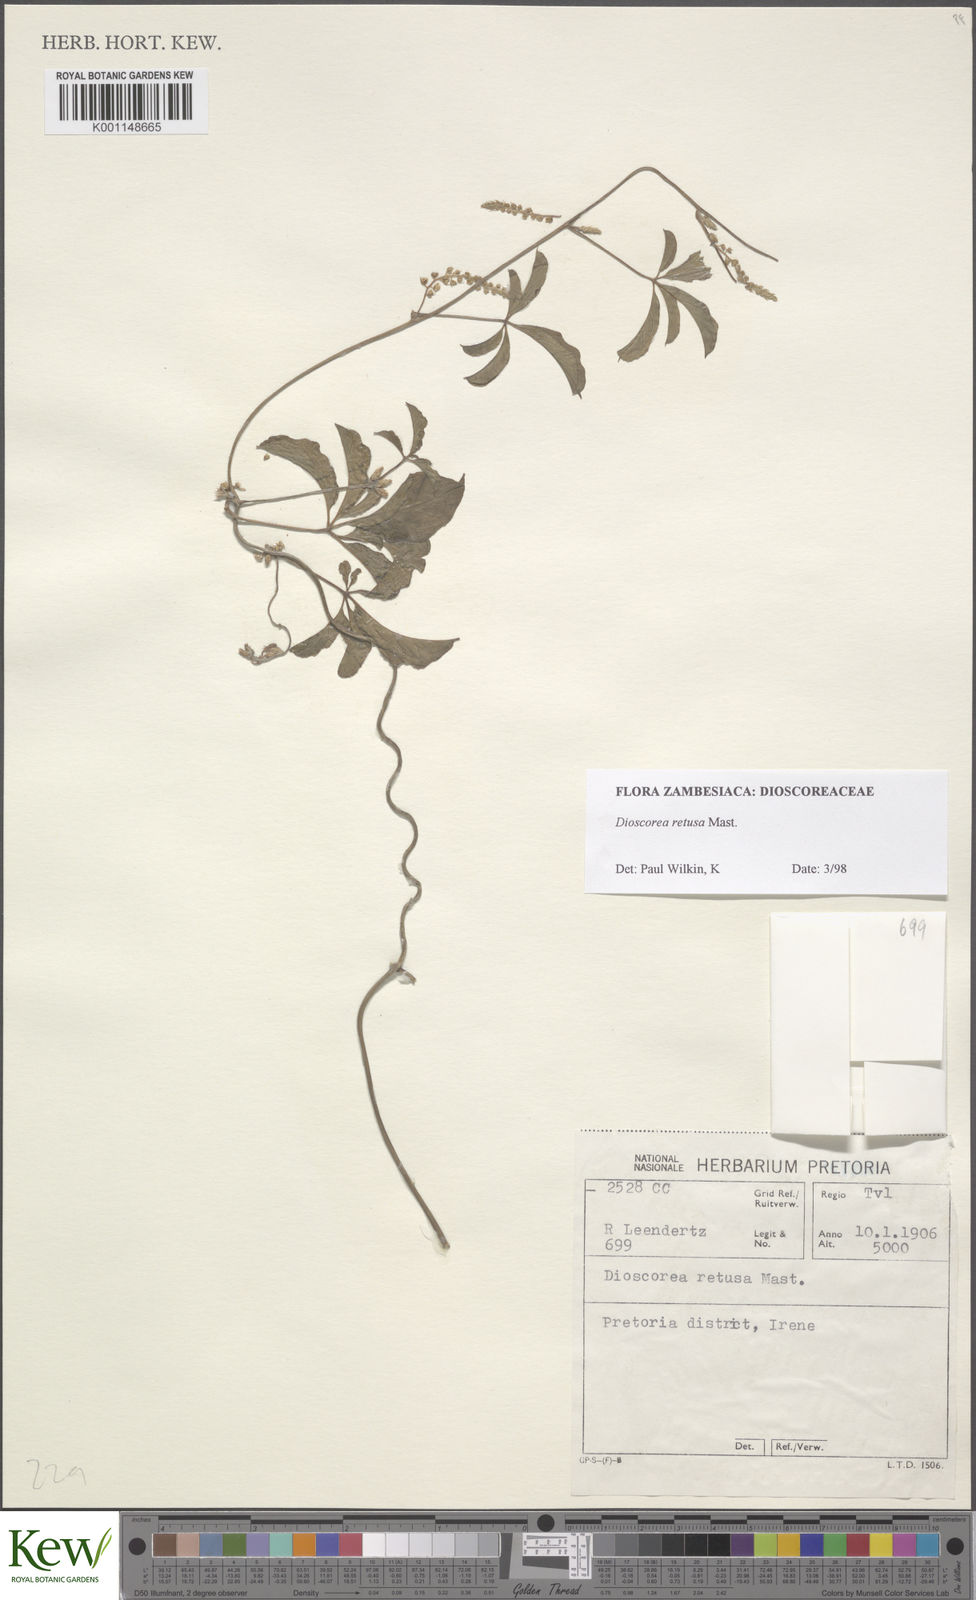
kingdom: Plantae
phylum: Tracheophyta
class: Liliopsida
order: Dioscoreales
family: Dioscoreaceae
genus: Dioscorea
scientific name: Dioscorea retusa
